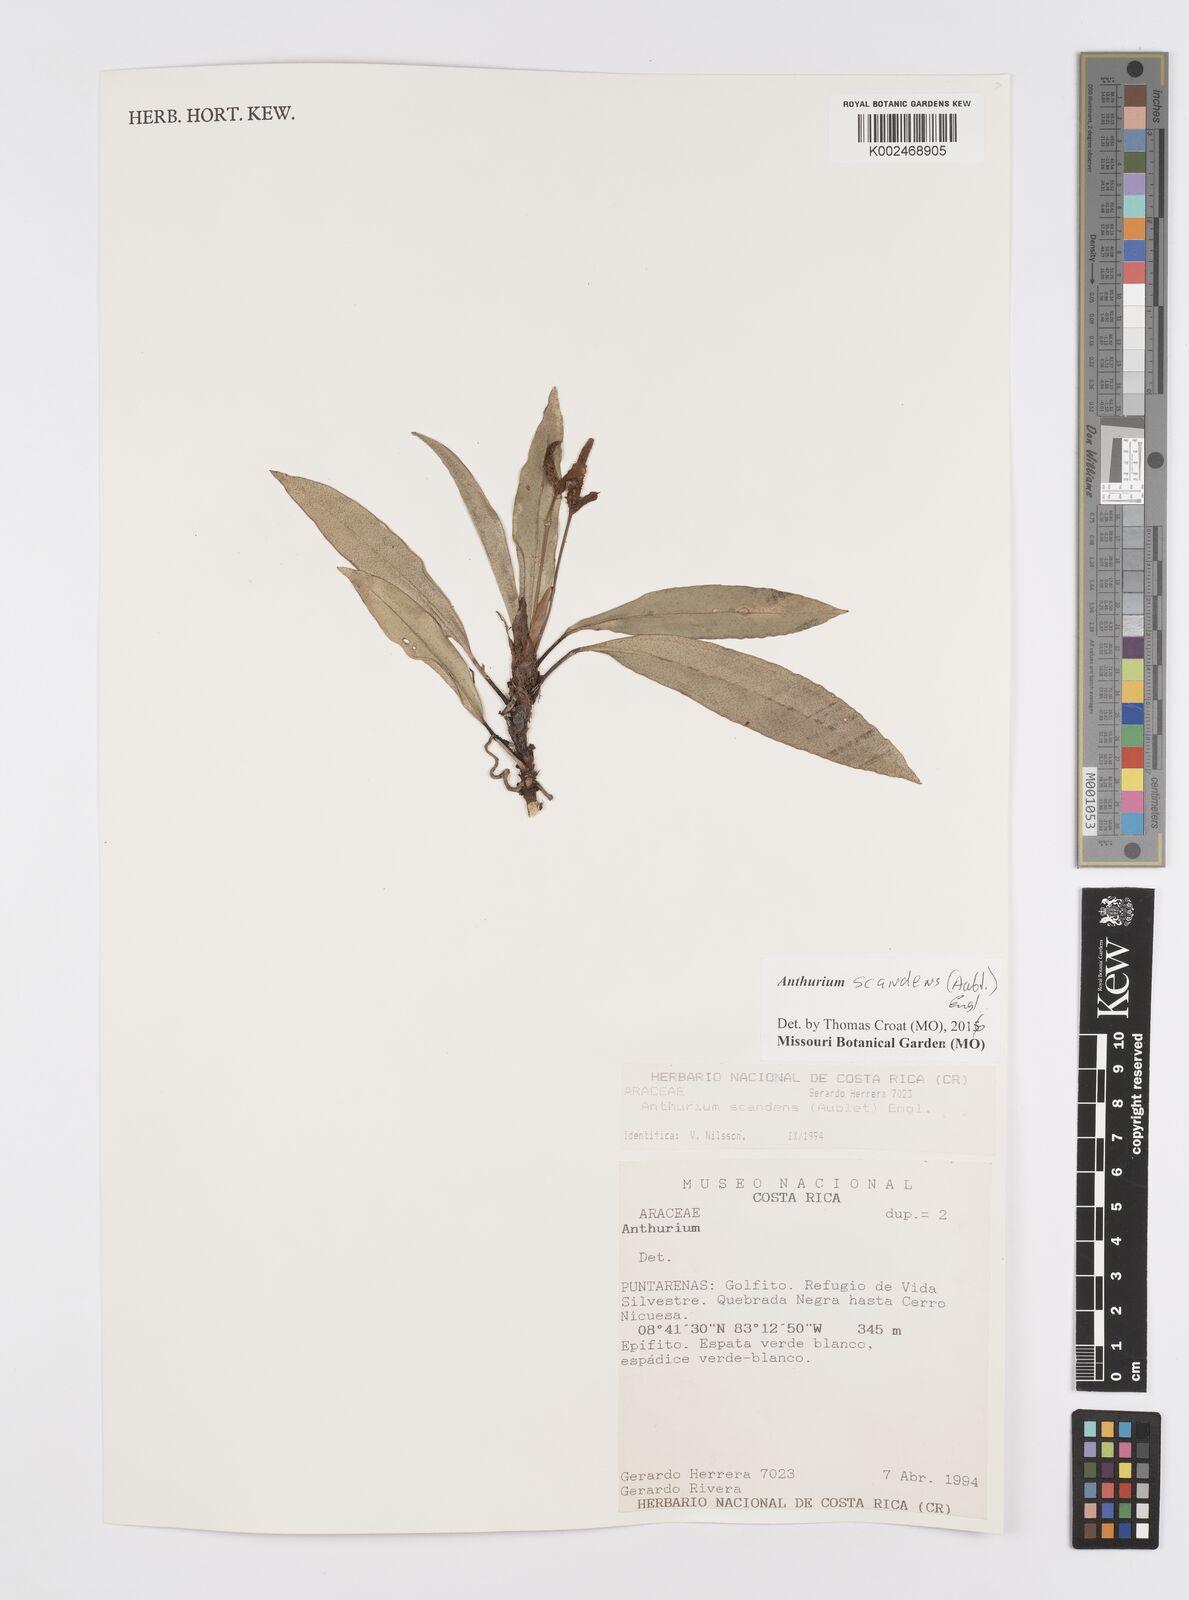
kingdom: Plantae
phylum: Tracheophyta
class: Liliopsida
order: Alismatales
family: Araceae
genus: Anthurium
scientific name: Anthurium scandens
